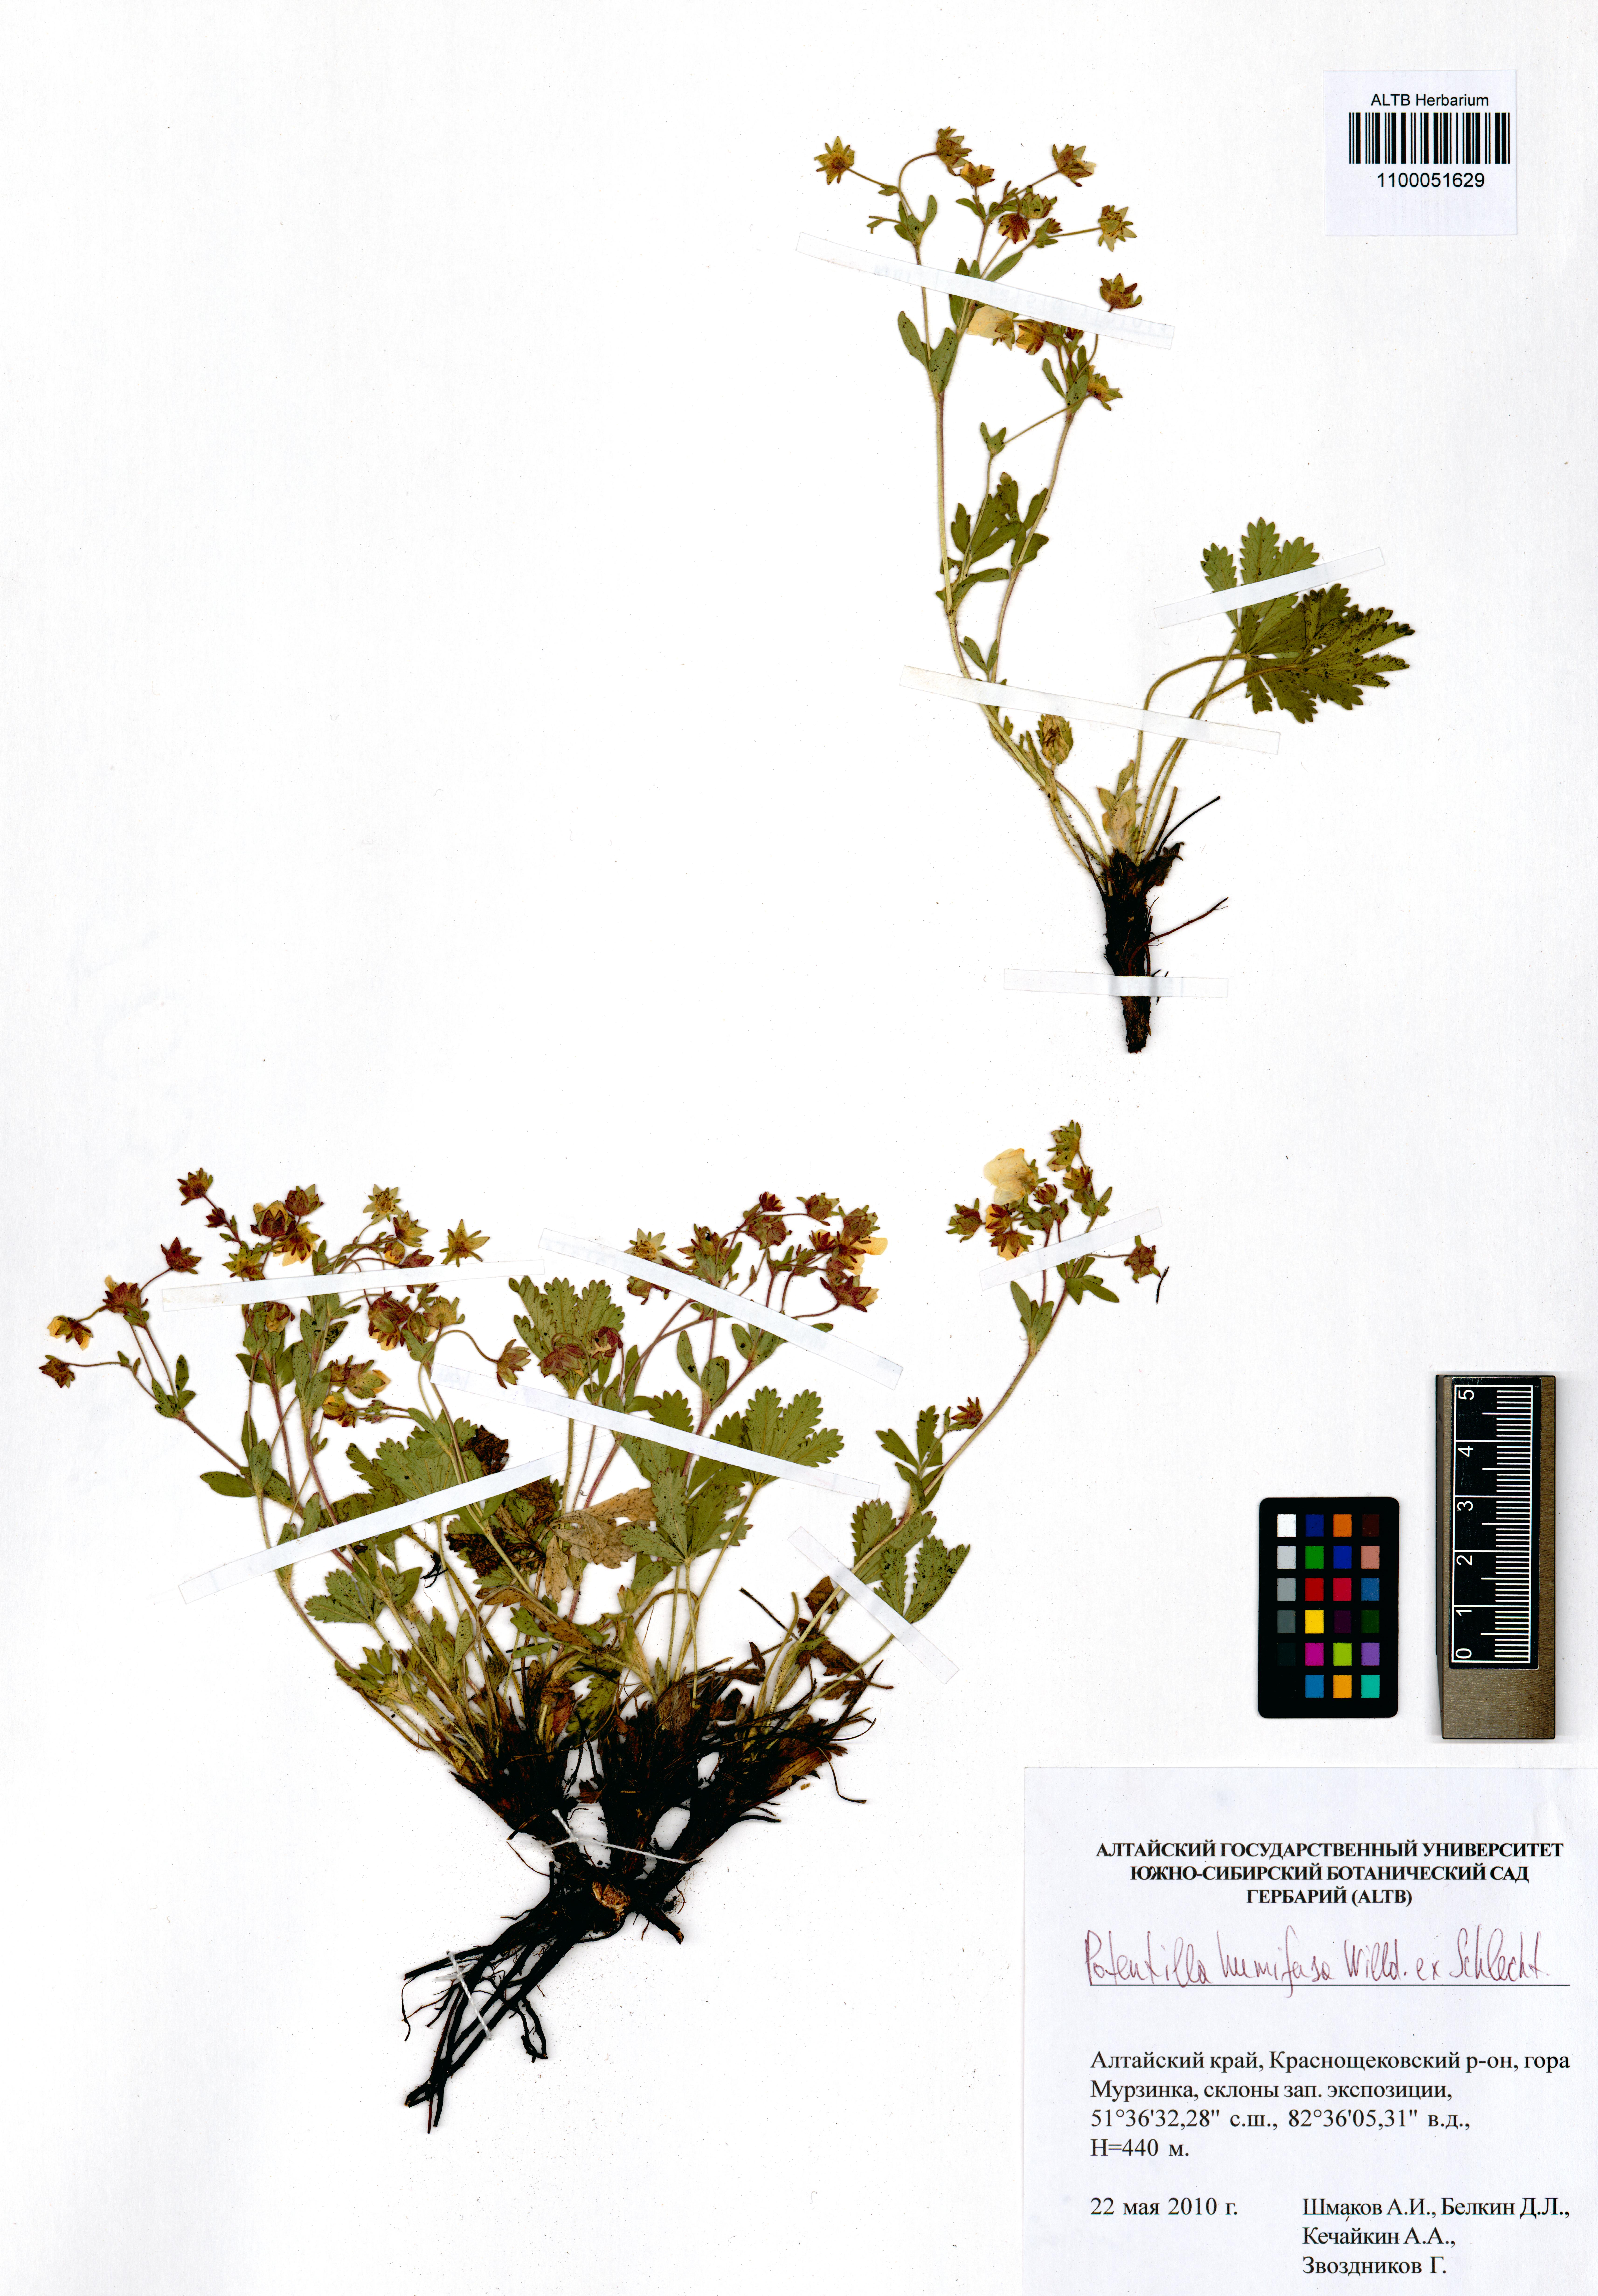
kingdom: Plantae
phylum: Tracheophyta
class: Magnoliopsida
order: Rosales
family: Rosaceae
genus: Potentilla
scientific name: Potentilla humifusa
